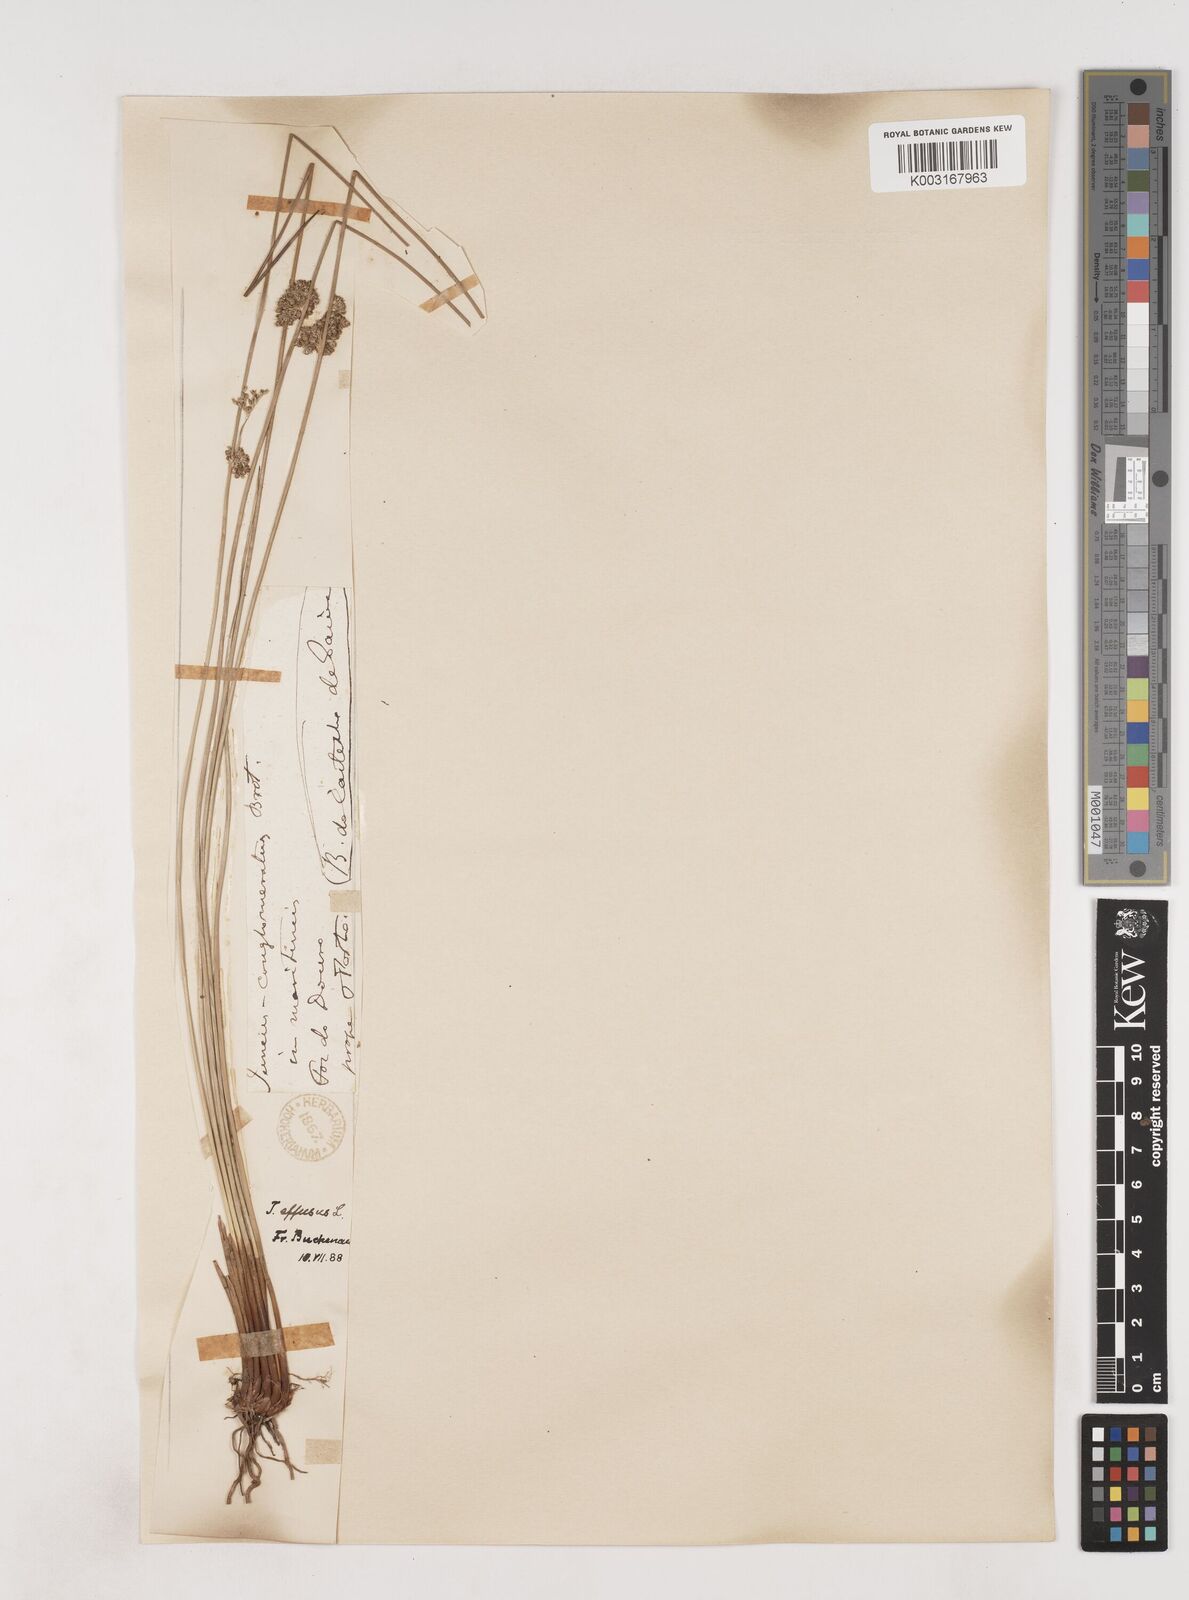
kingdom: Plantae
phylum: Tracheophyta
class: Liliopsida
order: Poales
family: Juncaceae
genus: Juncus
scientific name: Juncus effusus
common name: Soft rush
